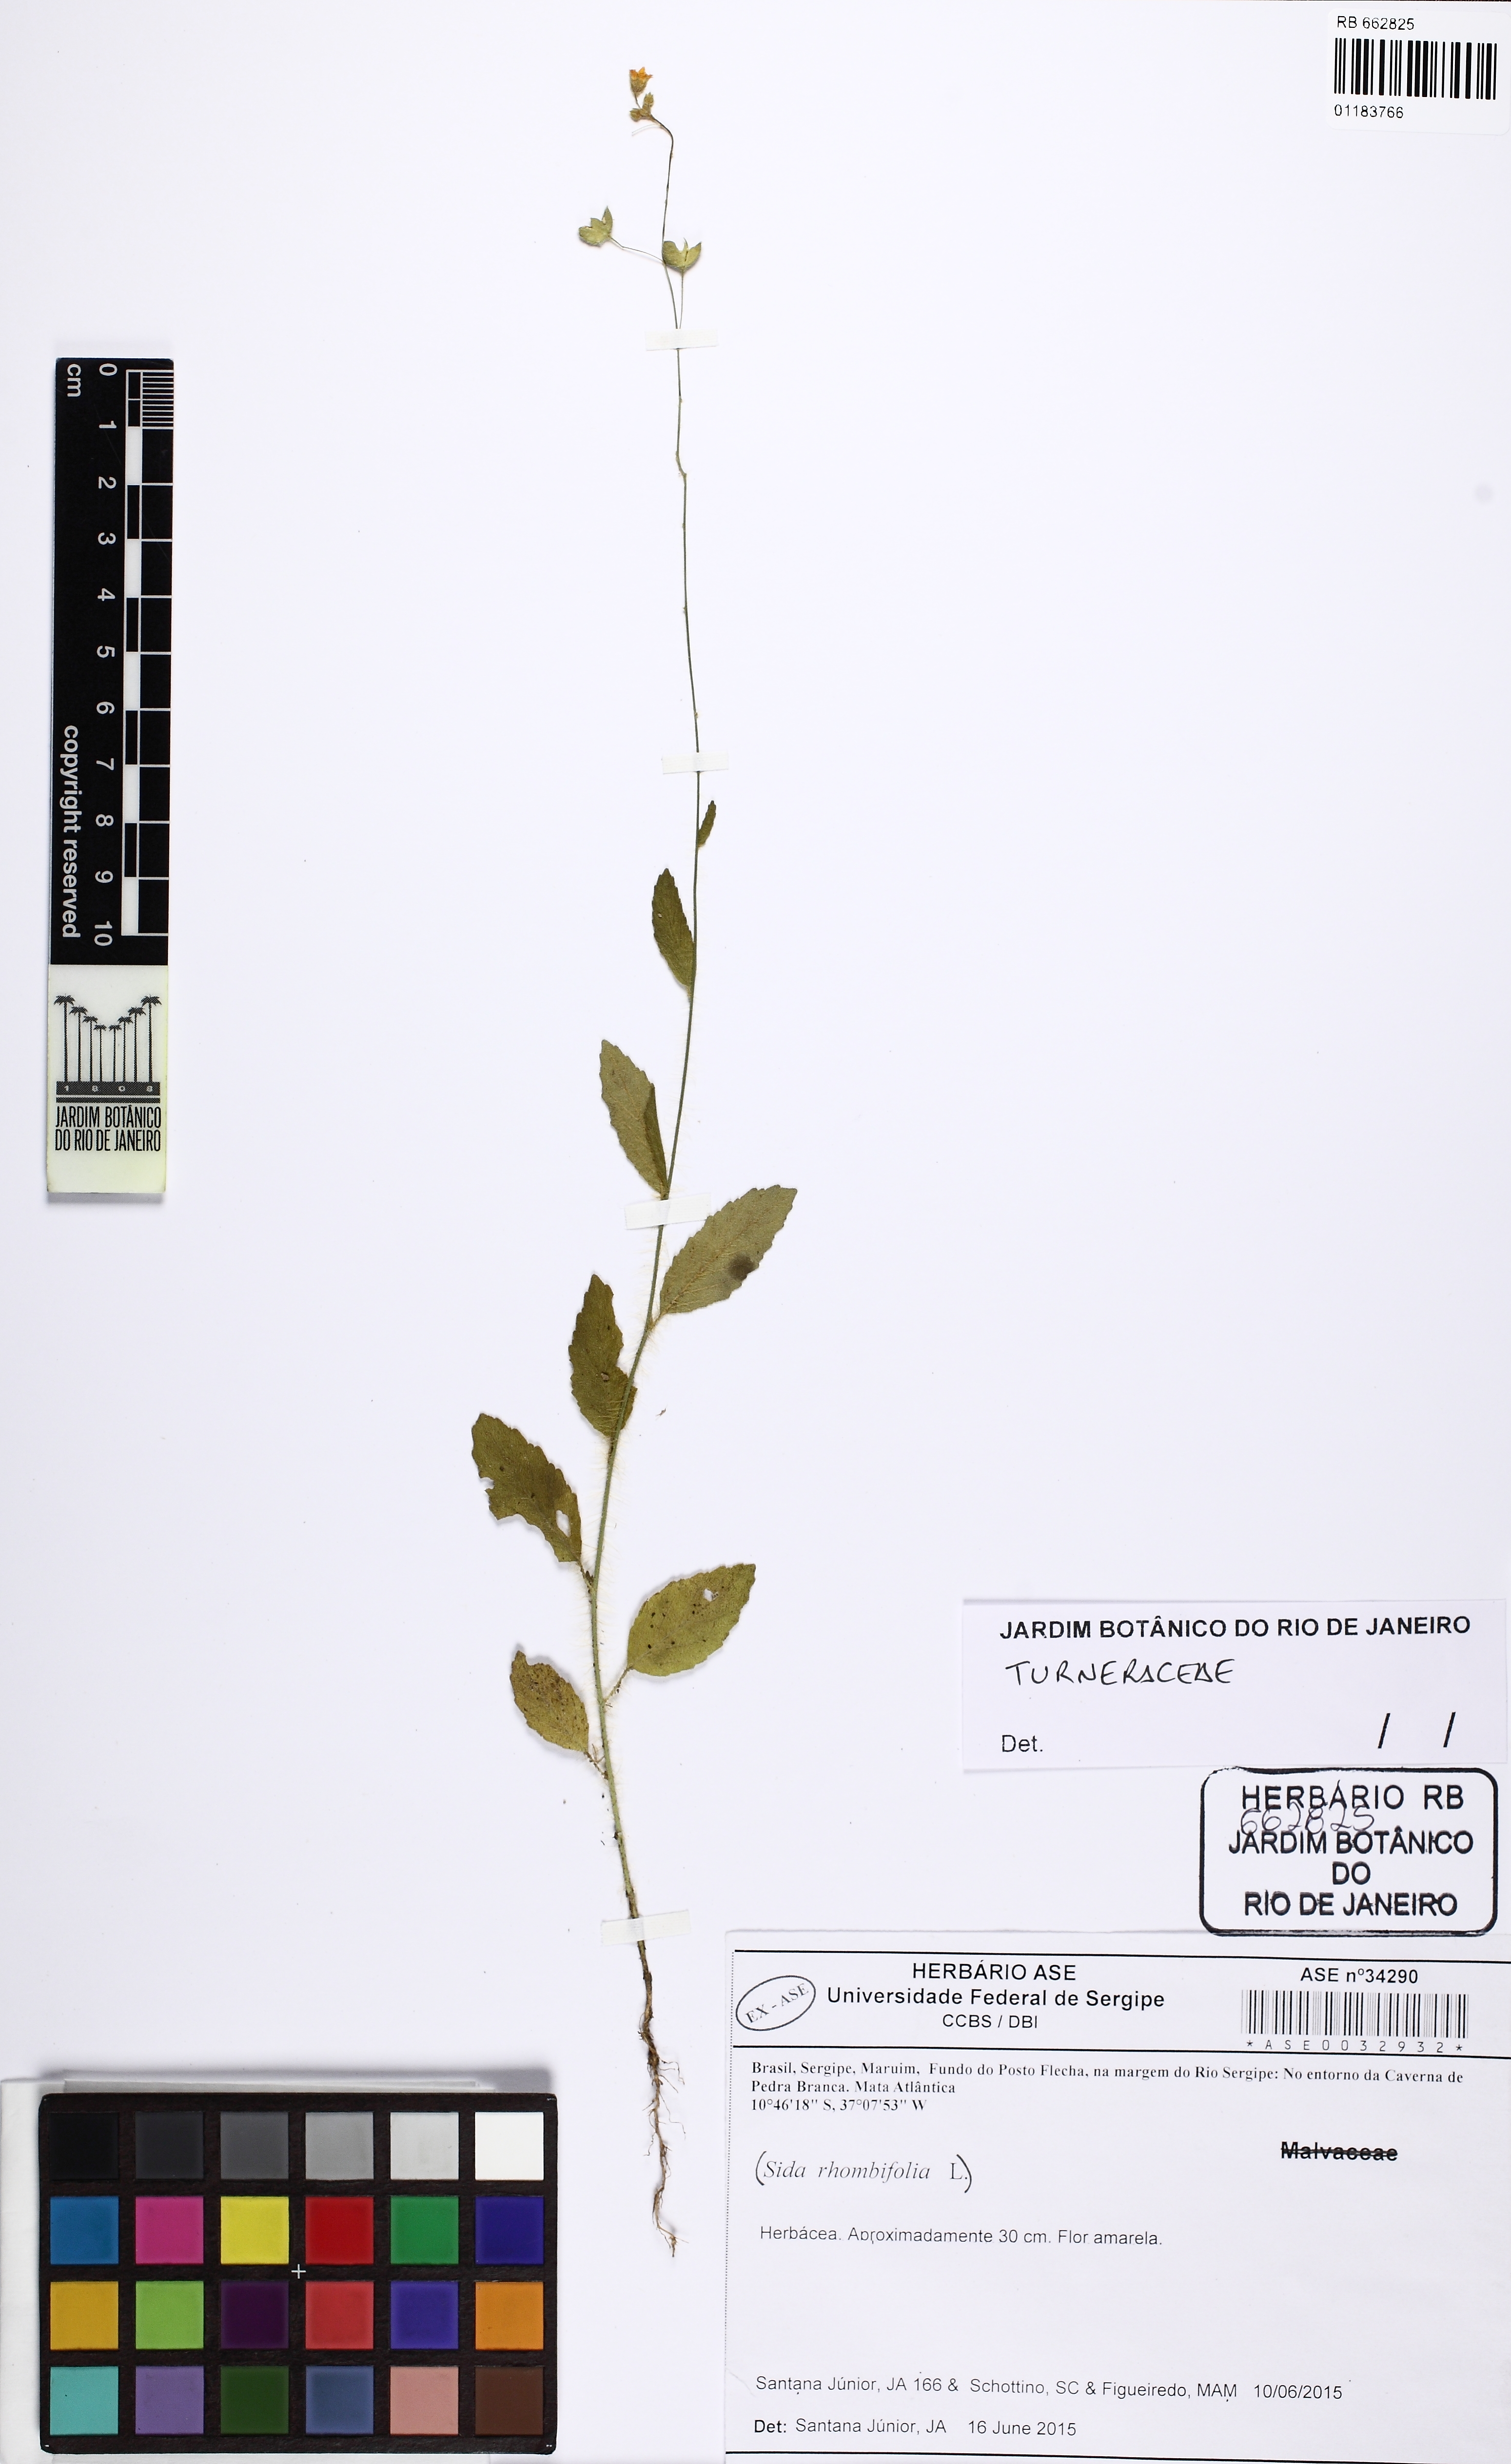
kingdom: Plantae
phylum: Tracheophyta
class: Magnoliopsida
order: Malpighiales
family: Turneraceae
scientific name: Turneraceae
